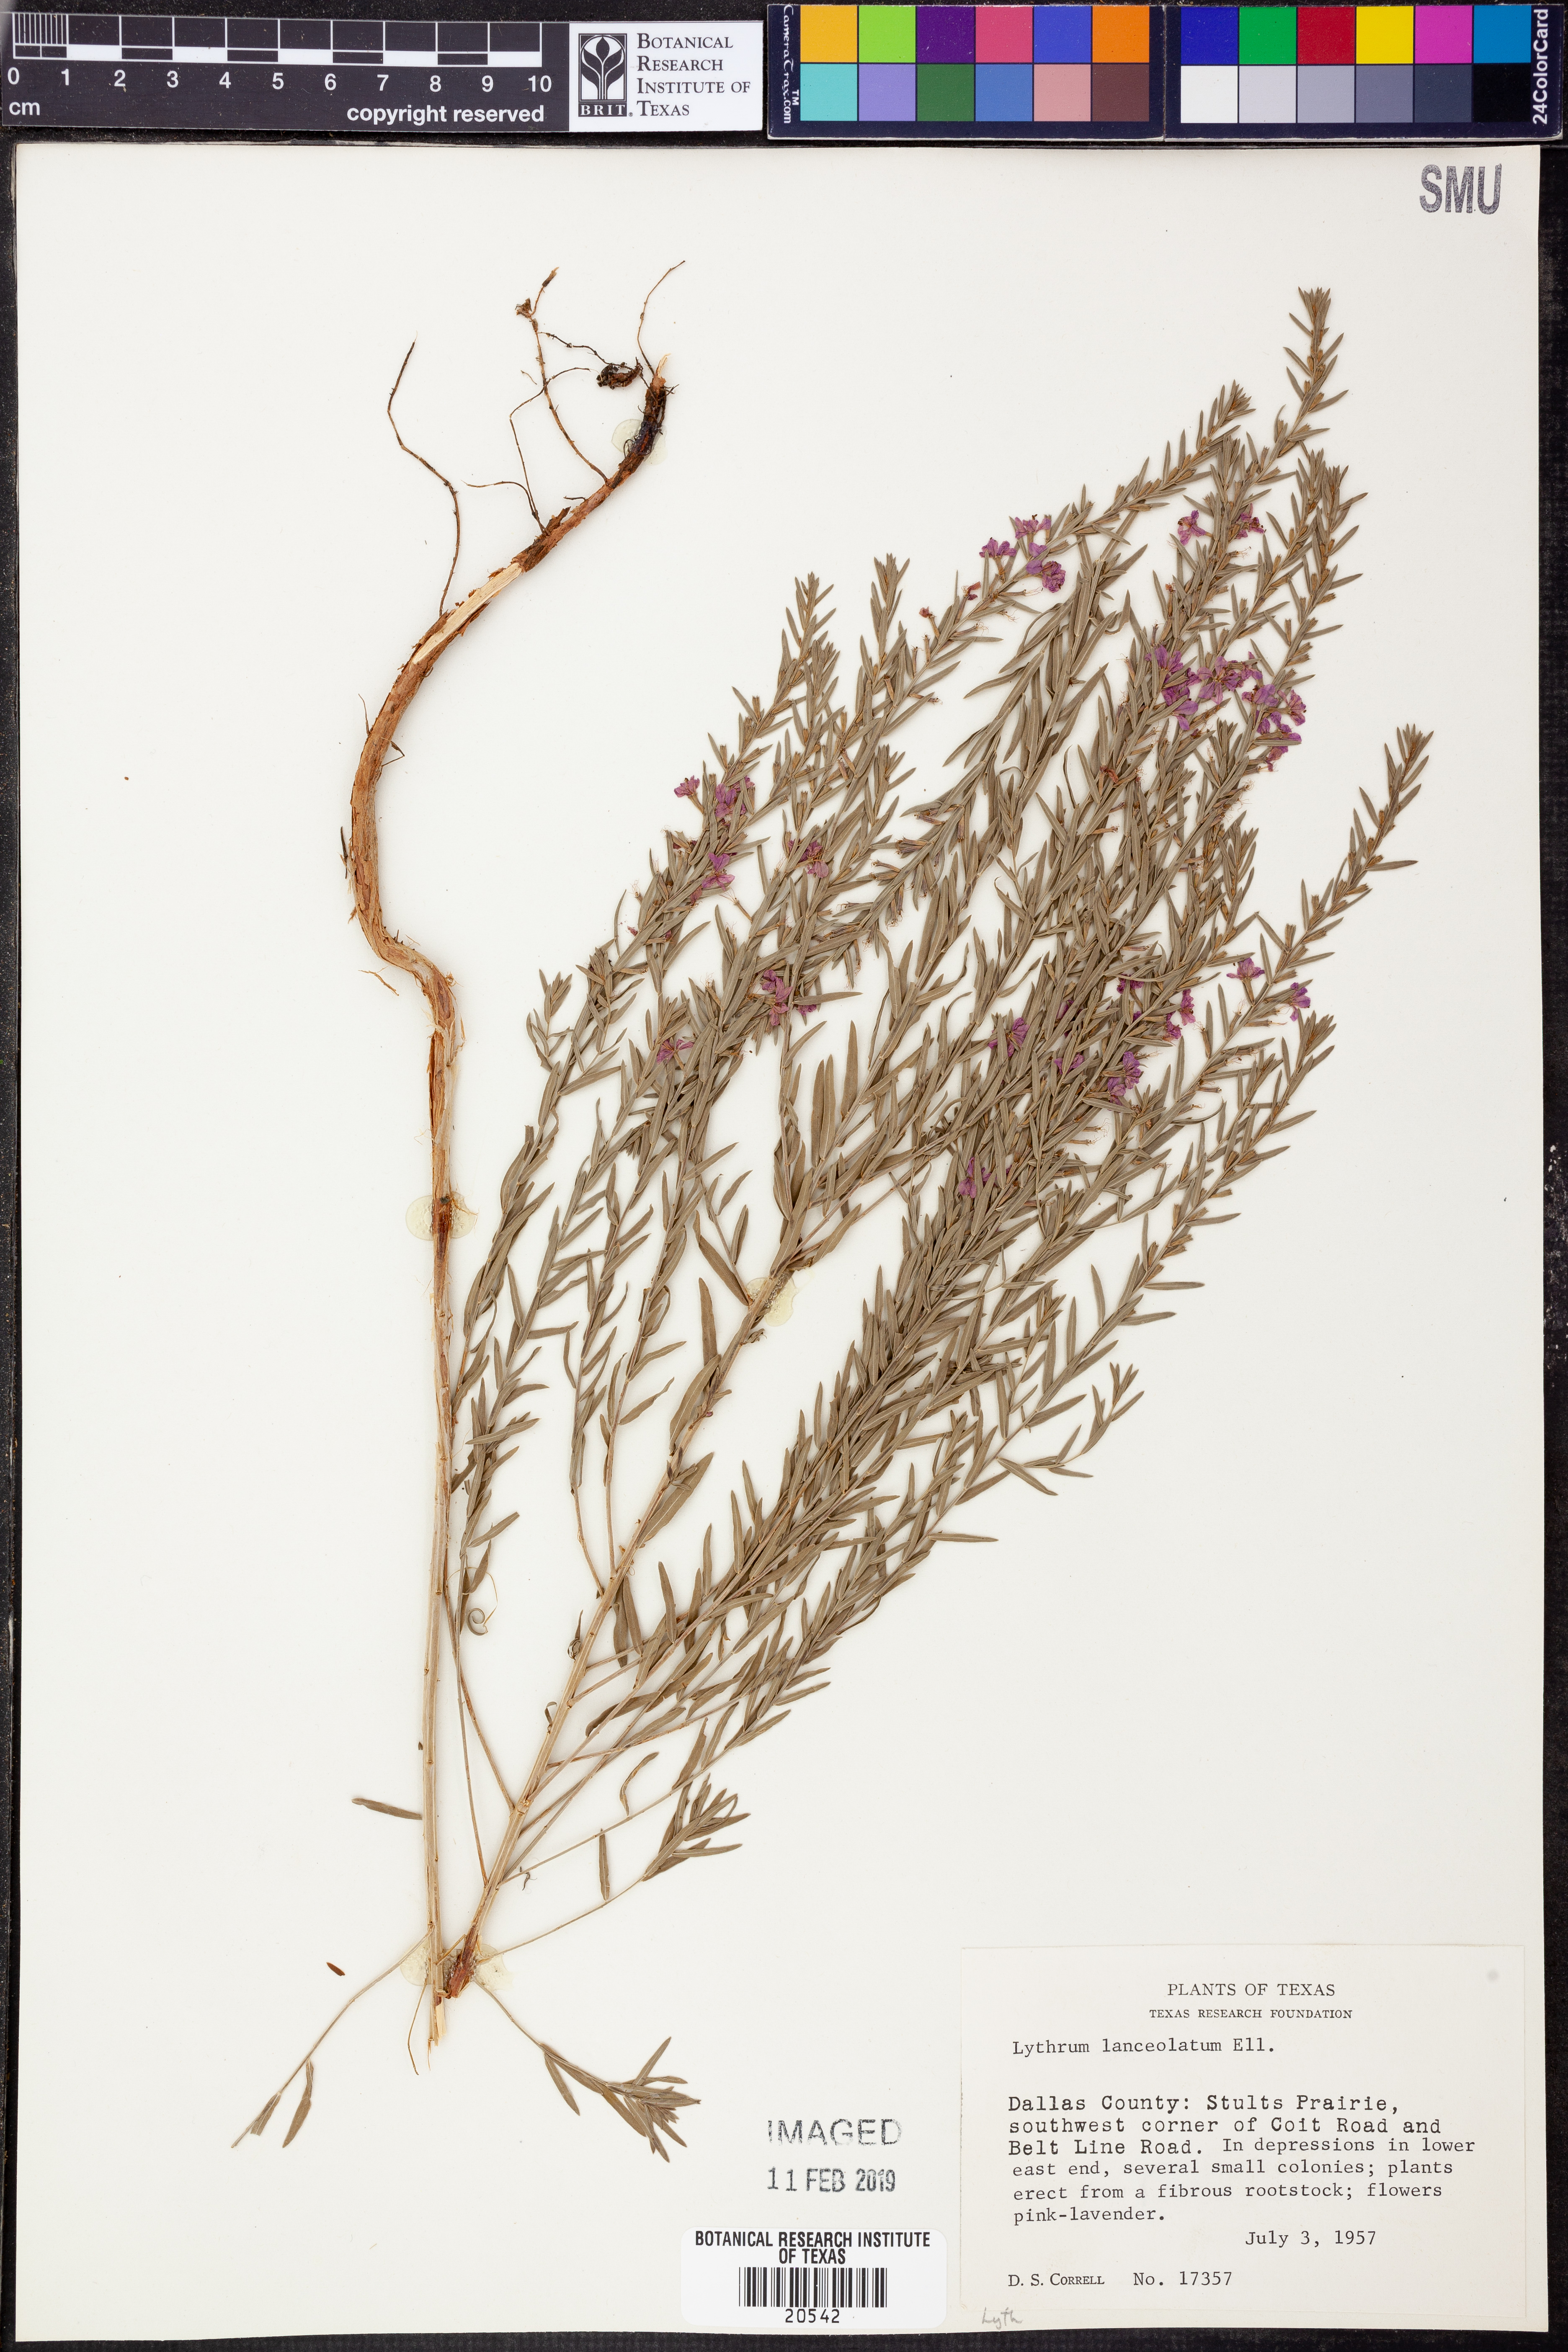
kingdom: Plantae
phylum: Tracheophyta
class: Magnoliopsida
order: Myrtales
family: Lythraceae
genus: Lythrum
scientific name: Lythrum alatum
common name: Winged loosestrife
